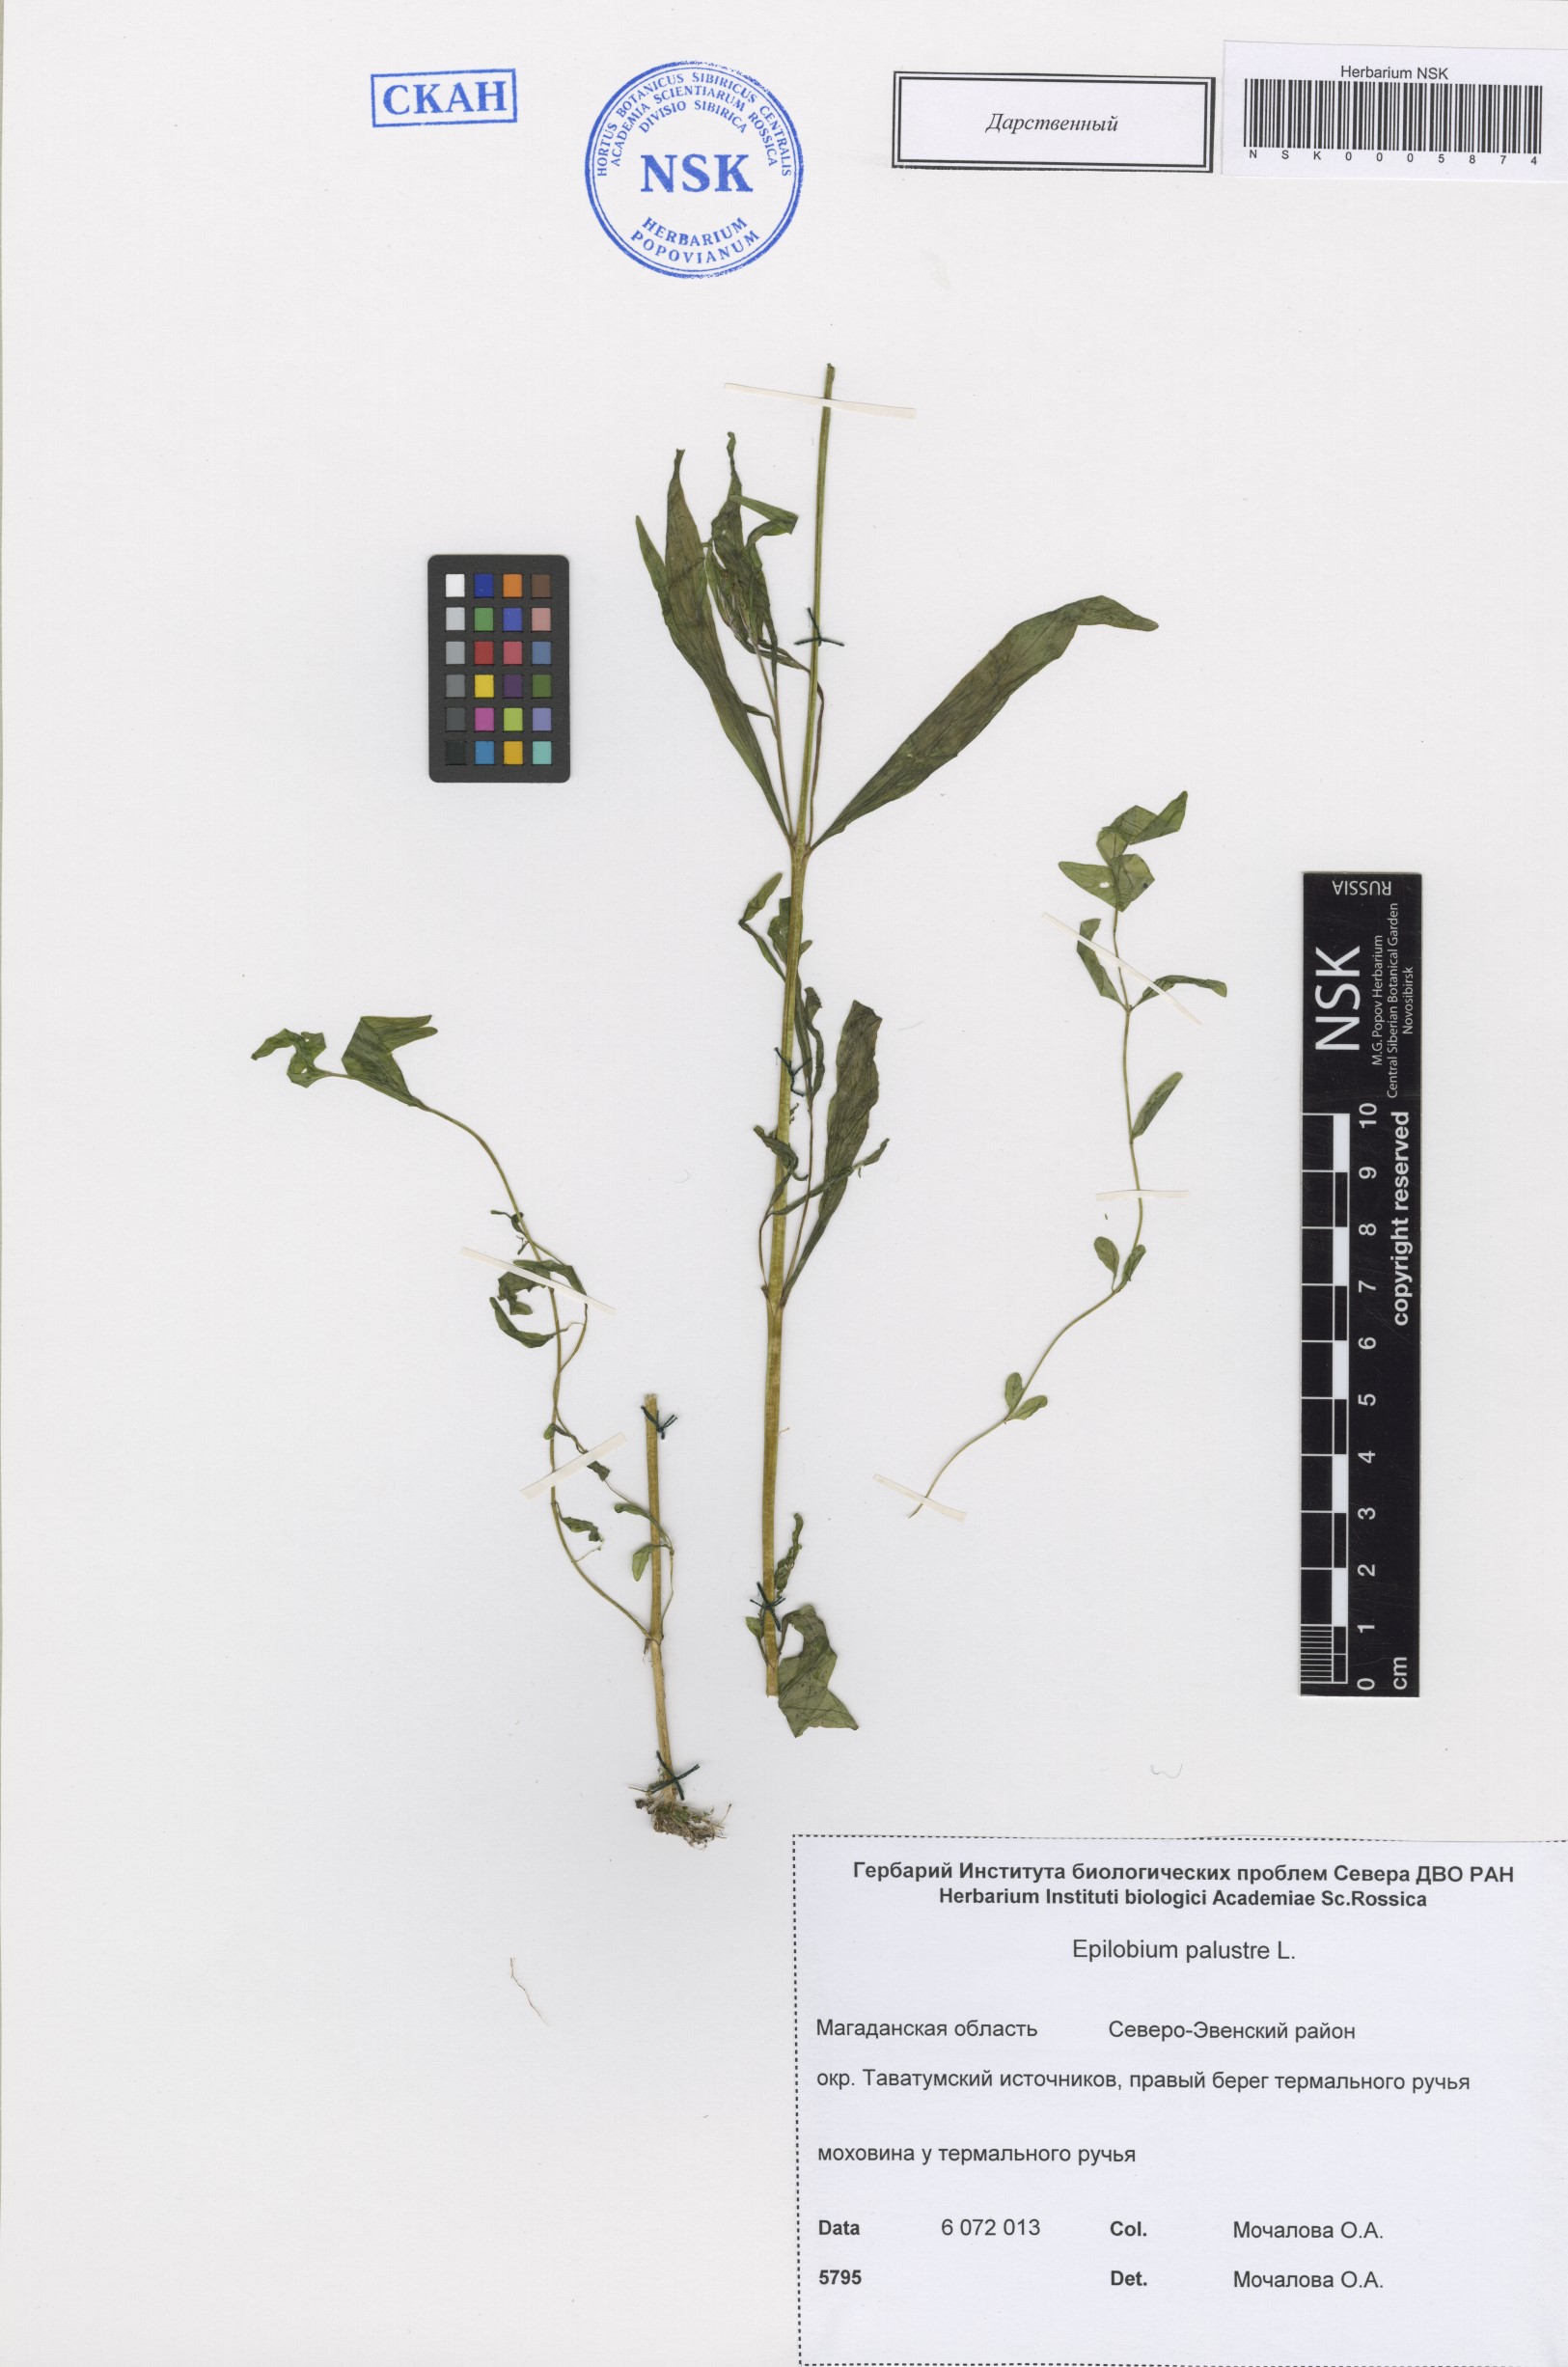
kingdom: Plantae
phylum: Tracheophyta
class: Magnoliopsida
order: Myrtales
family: Onagraceae
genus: Epilobium
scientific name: Epilobium palustre
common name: Marsh willowherb
